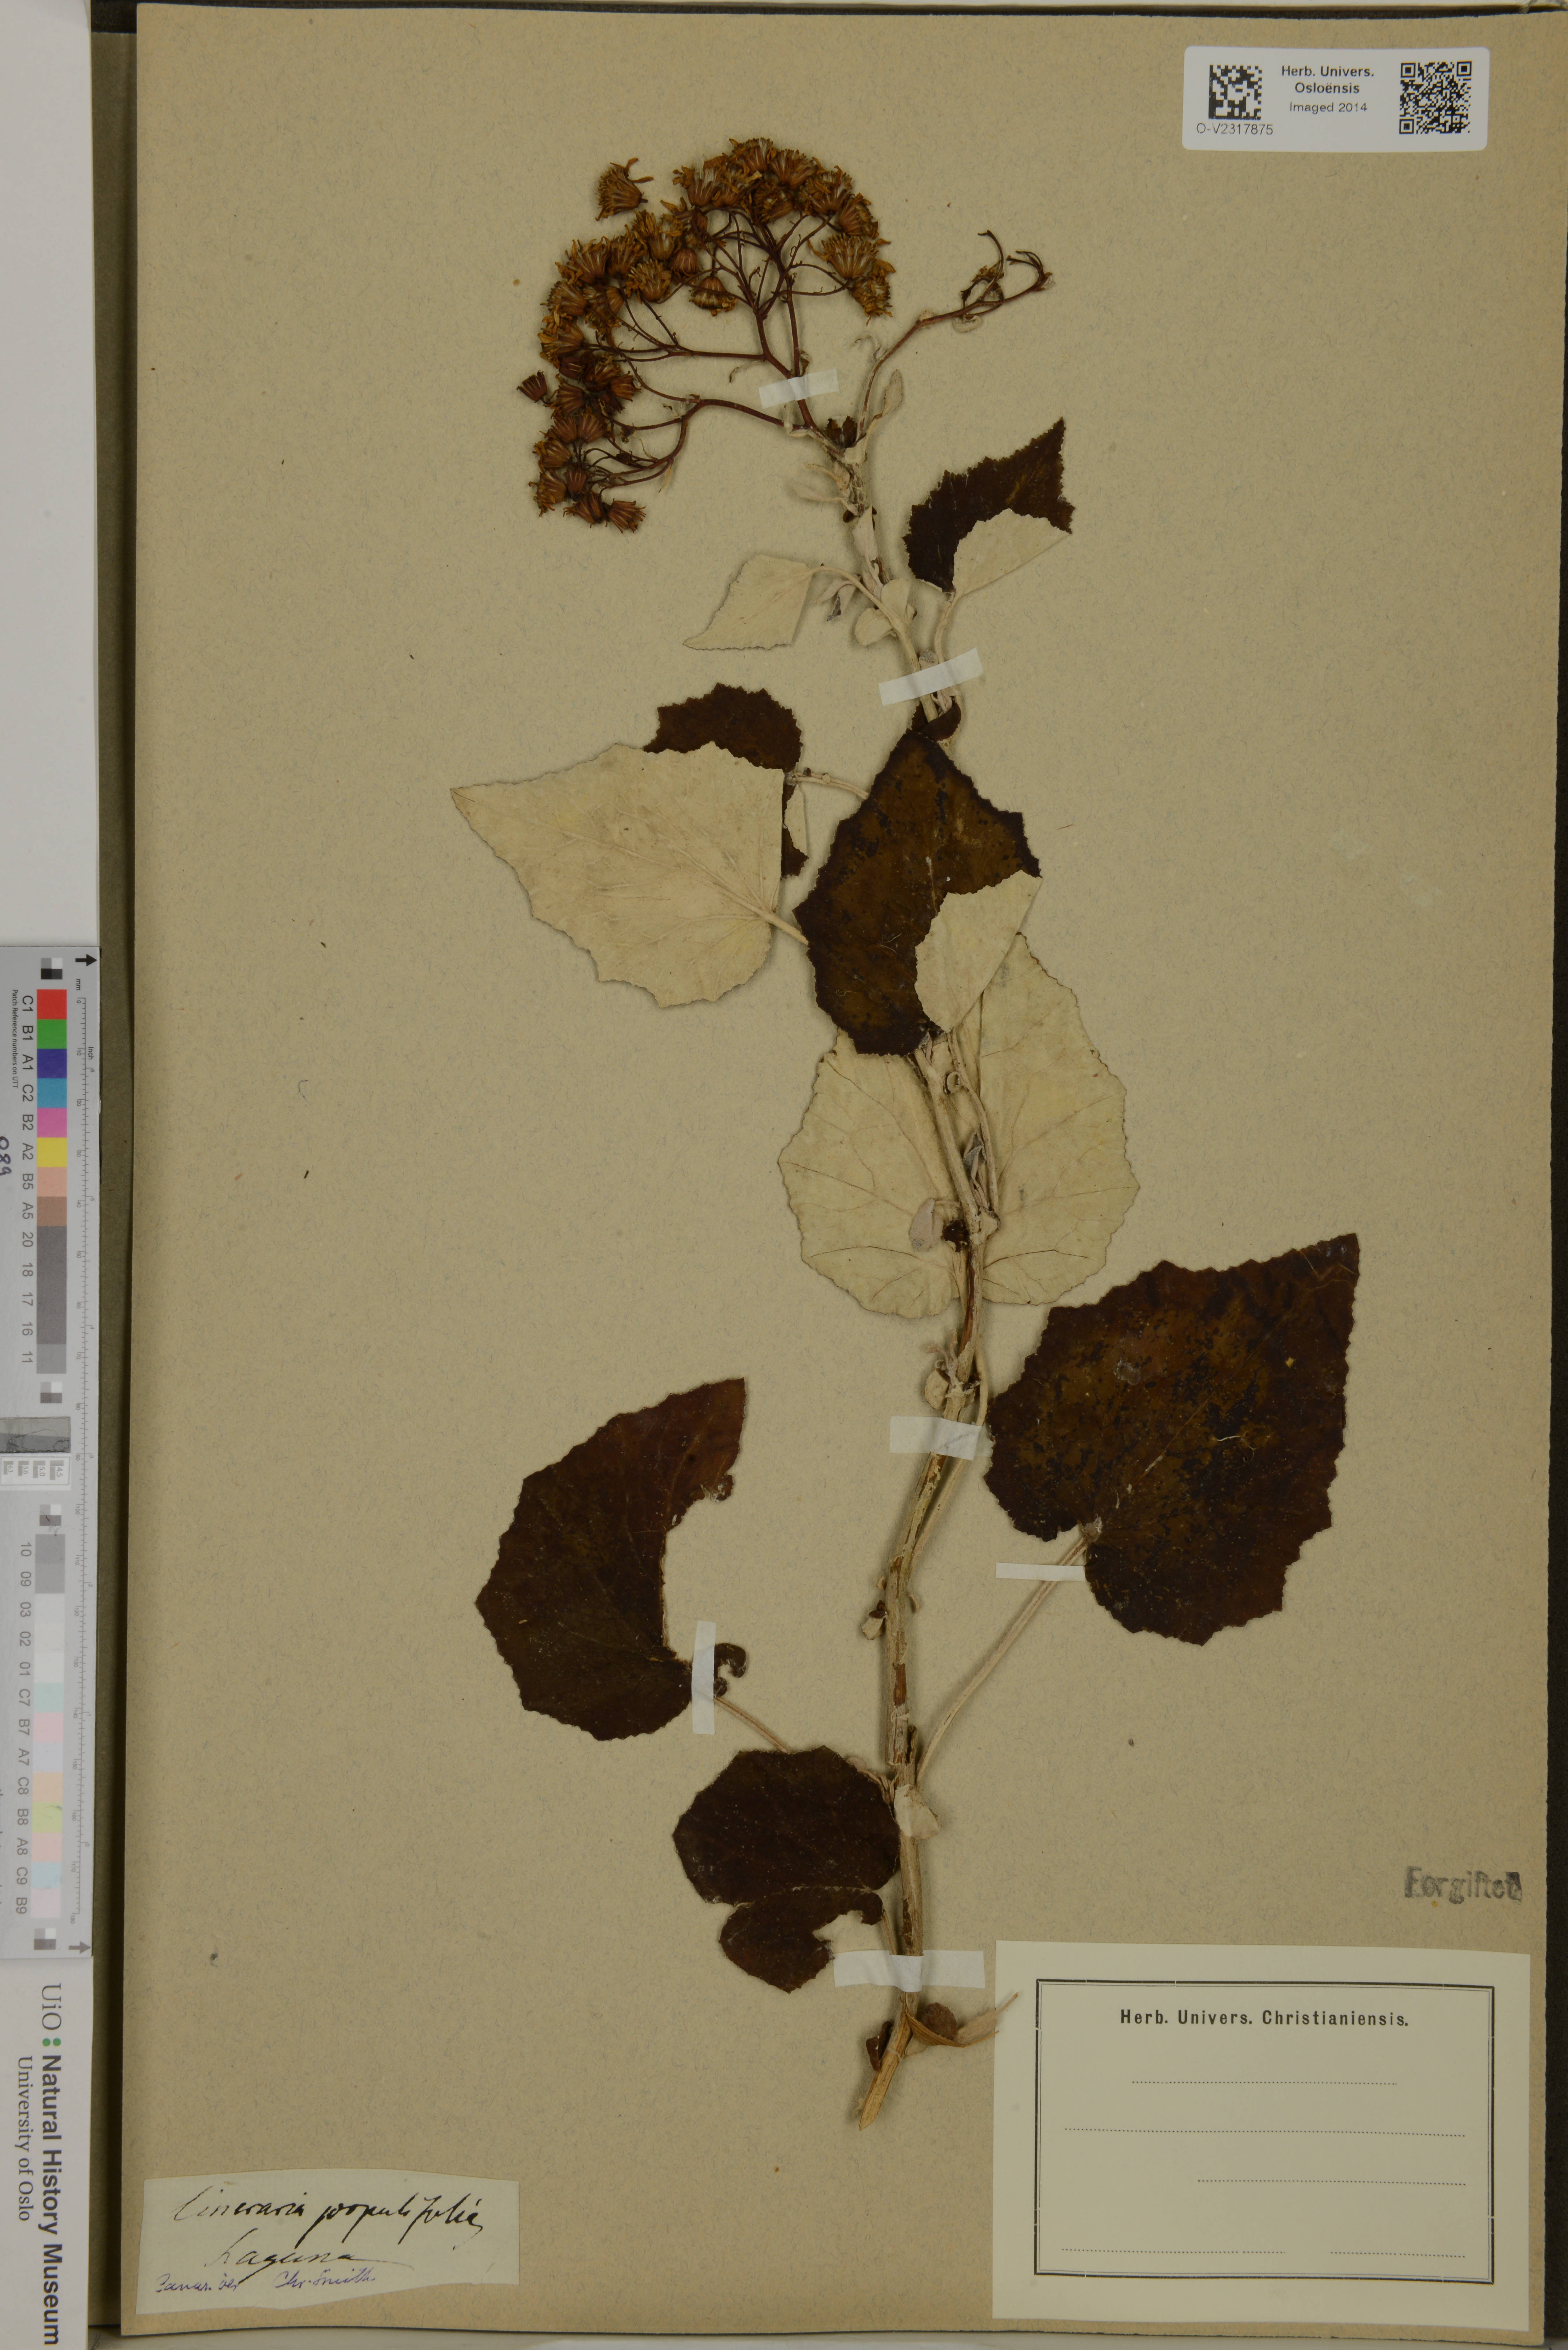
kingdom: Plantae
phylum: Tracheophyta
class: Magnoliopsida
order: Asterales
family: Asteraceae
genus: Pericallis
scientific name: Pericallis appendiculata
